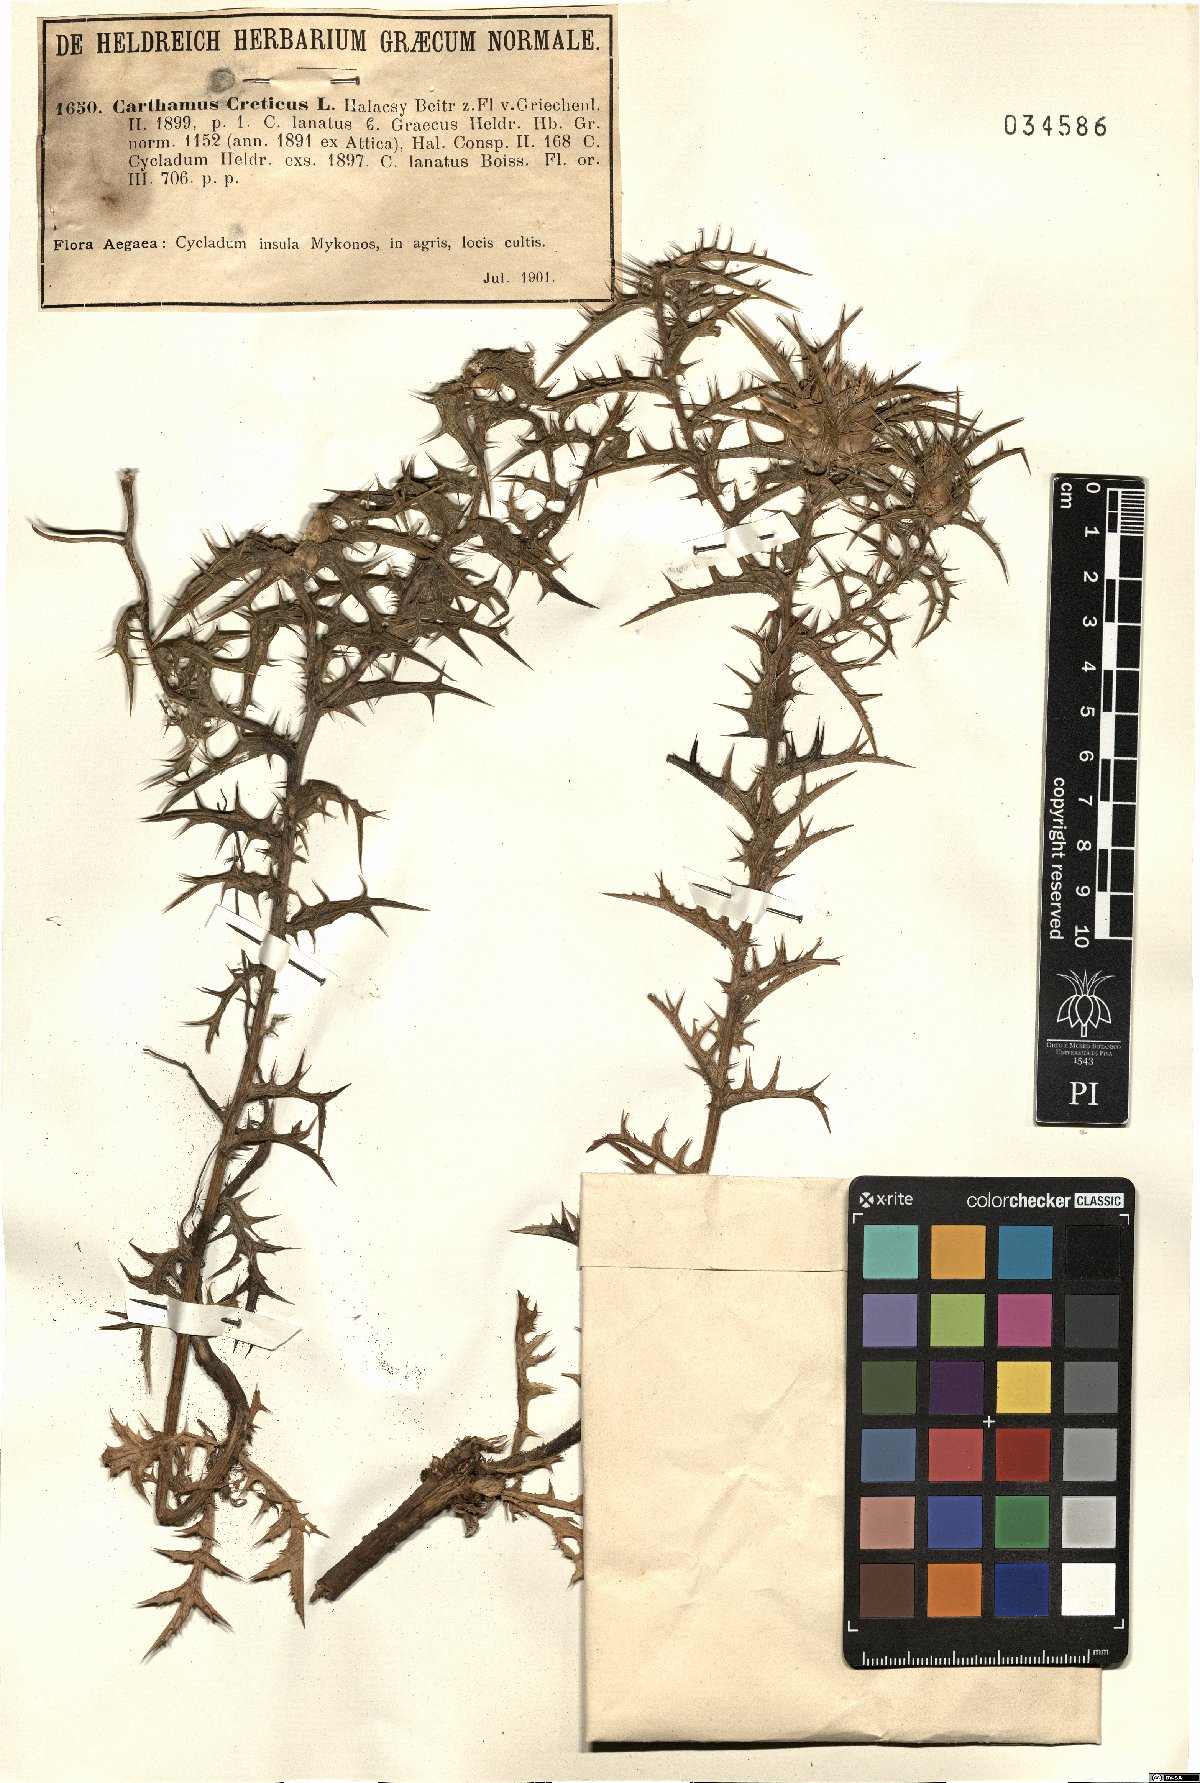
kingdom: Plantae
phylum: Tracheophyta
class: Magnoliopsida
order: Asterales
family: Asteraceae
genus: Carthamus
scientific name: Carthamus creticus
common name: Smooth distaff thistle
